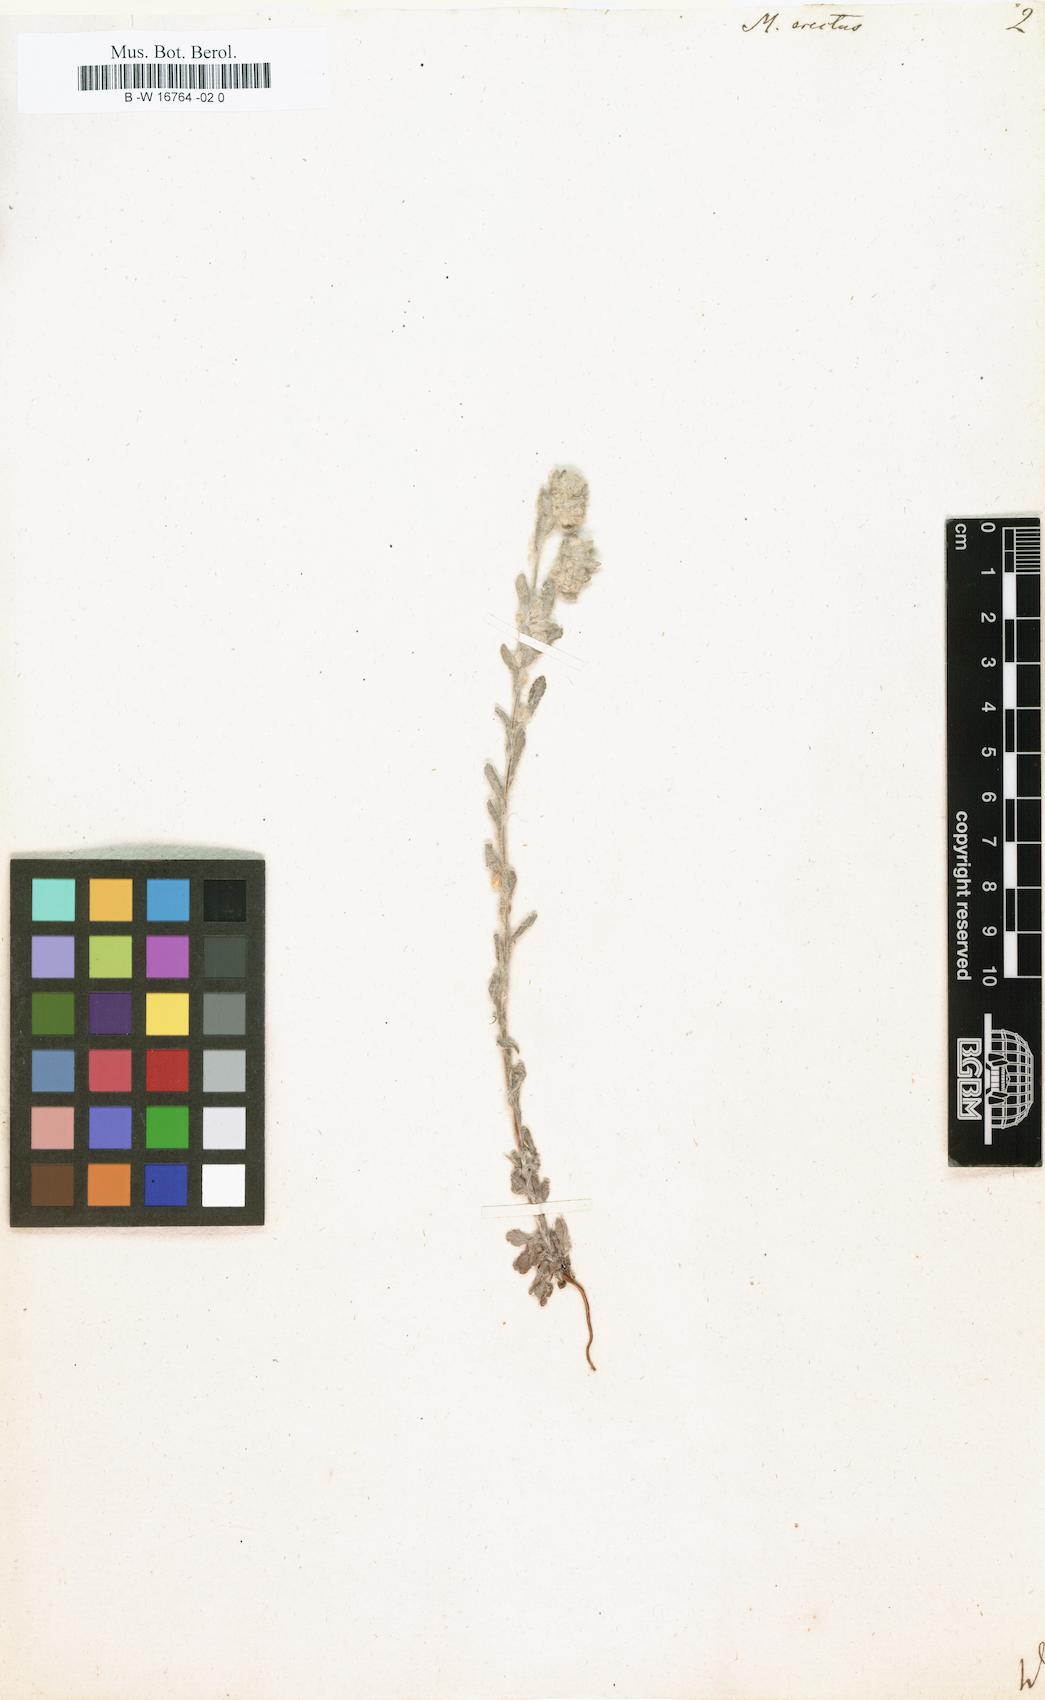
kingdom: Plantae
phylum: Tracheophyta
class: Magnoliopsida
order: Asterales
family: Asteraceae
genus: Bombycilaena
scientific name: Bombycilaena
